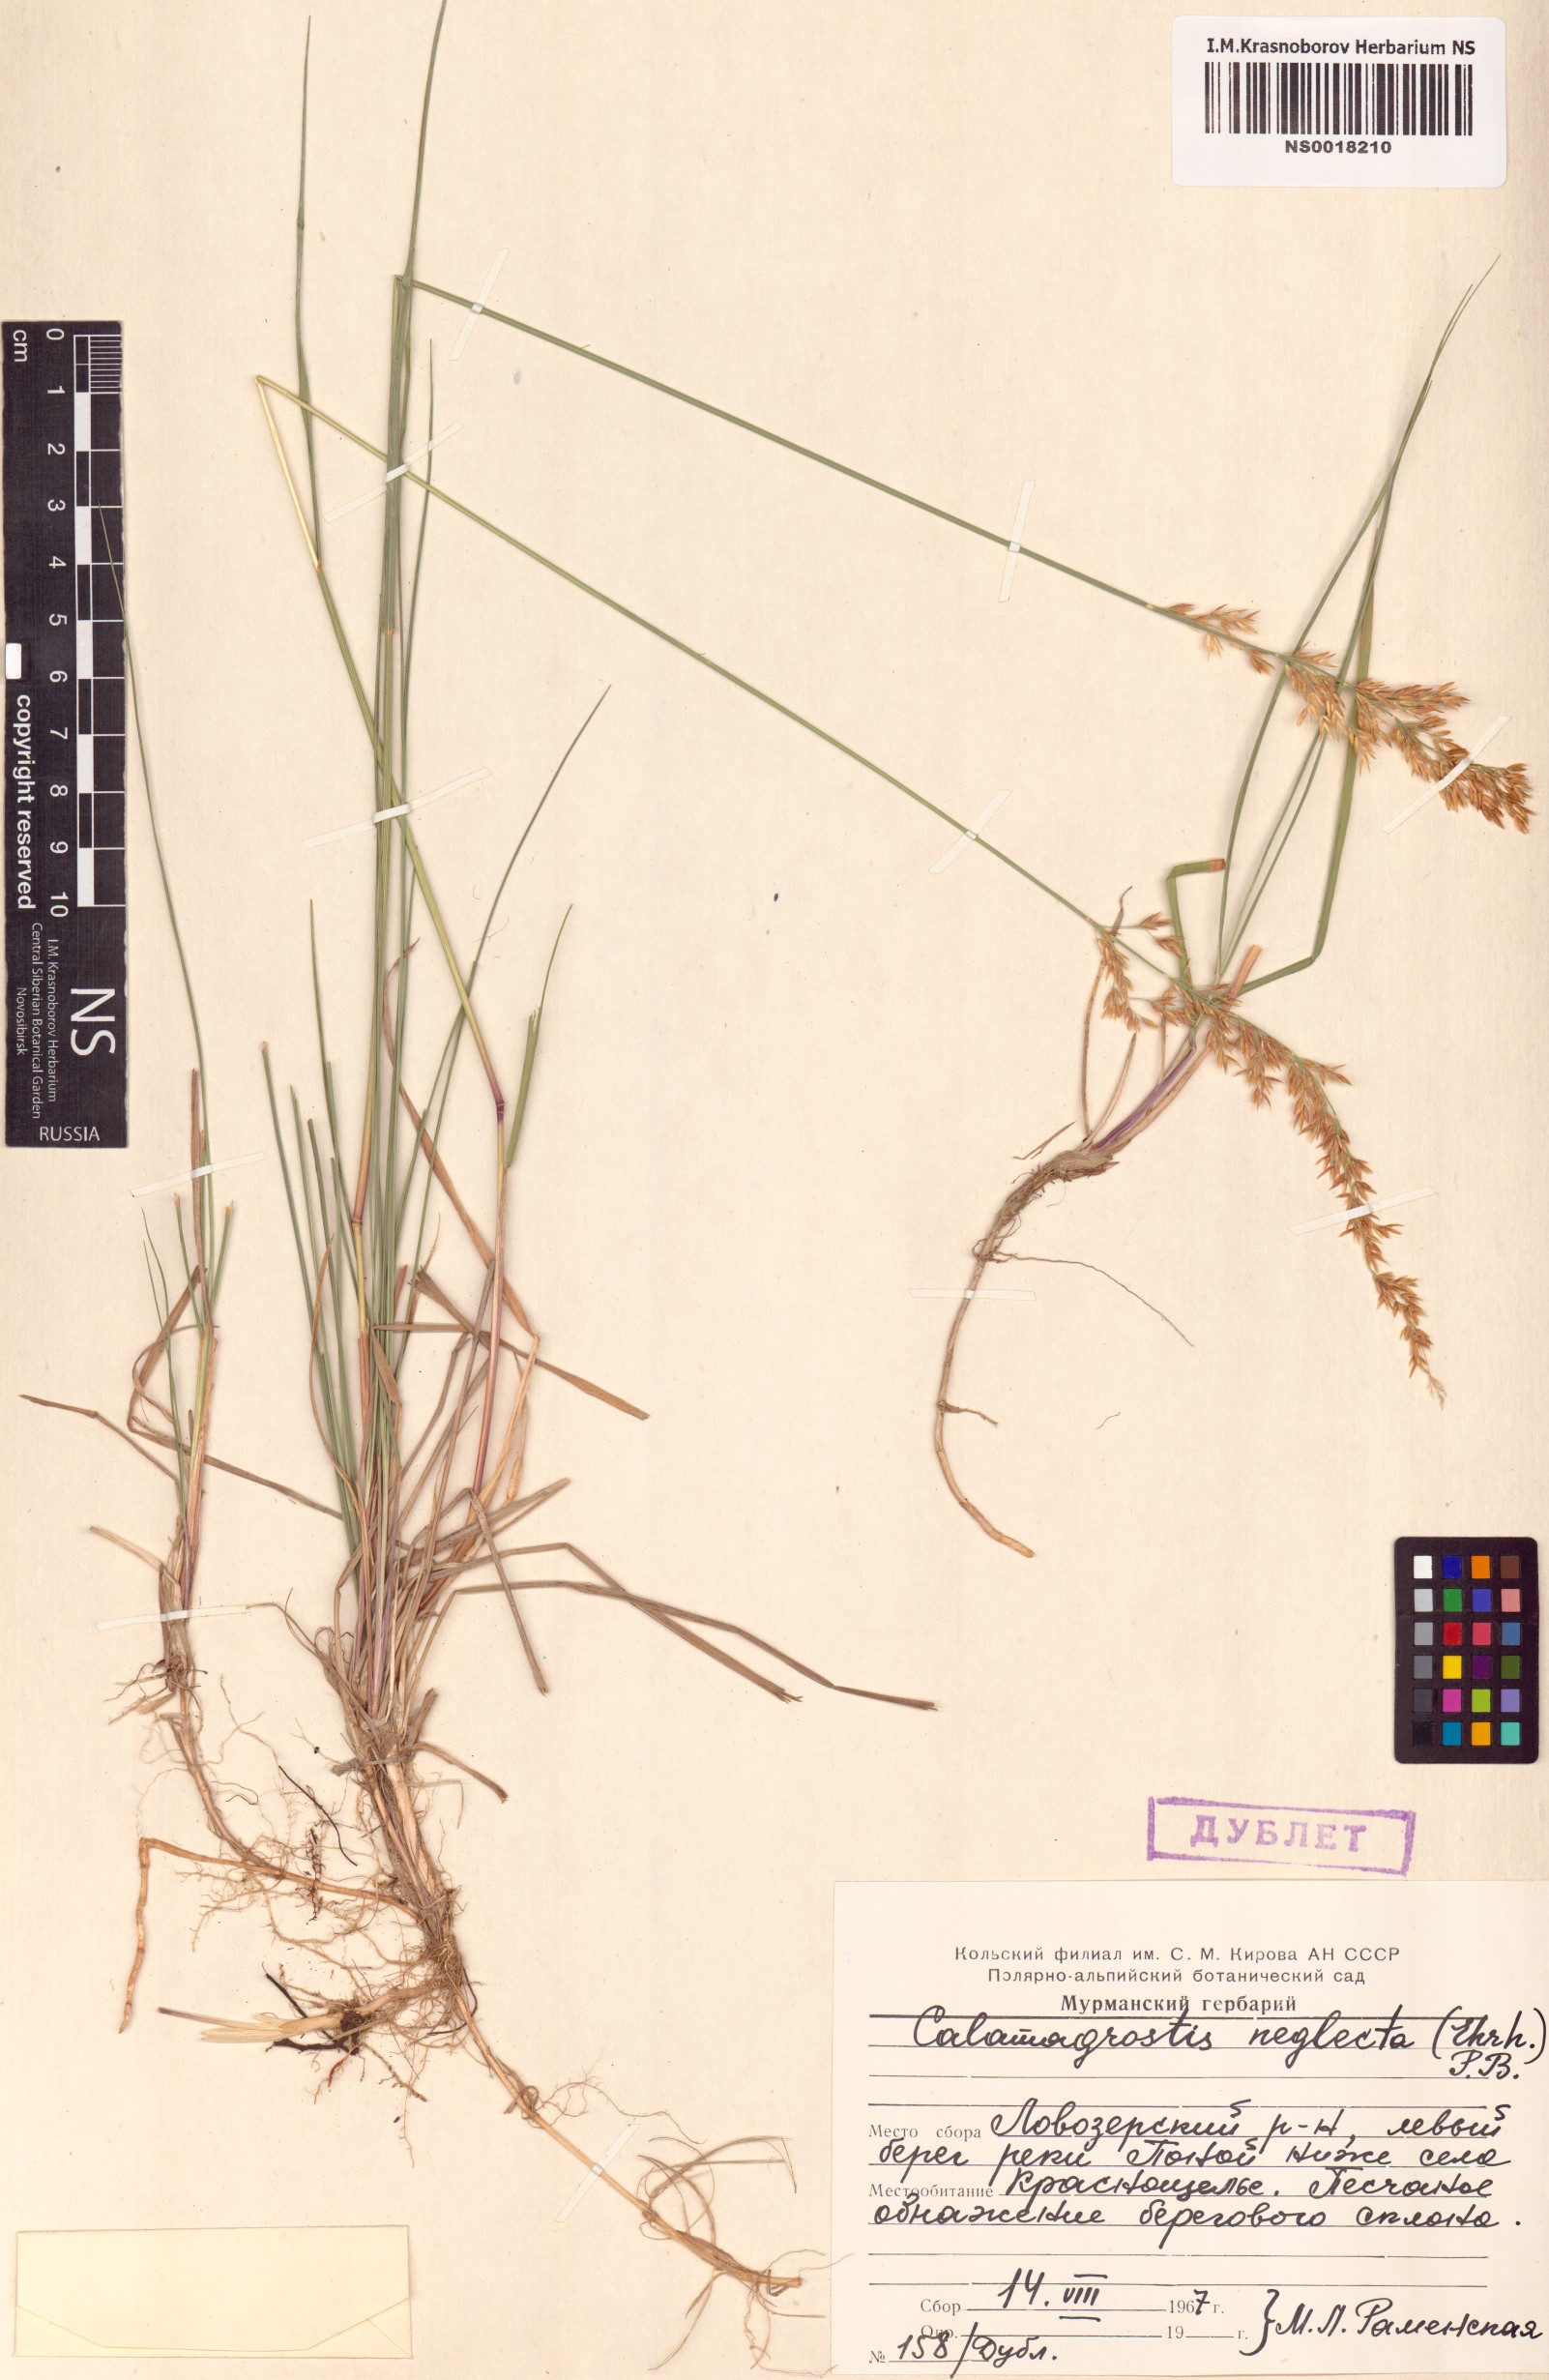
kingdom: Plantae
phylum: Tracheophyta
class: Liliopsida
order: Poales
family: Poaceae
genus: Achnatherum
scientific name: Achnatherum calamagrostis
